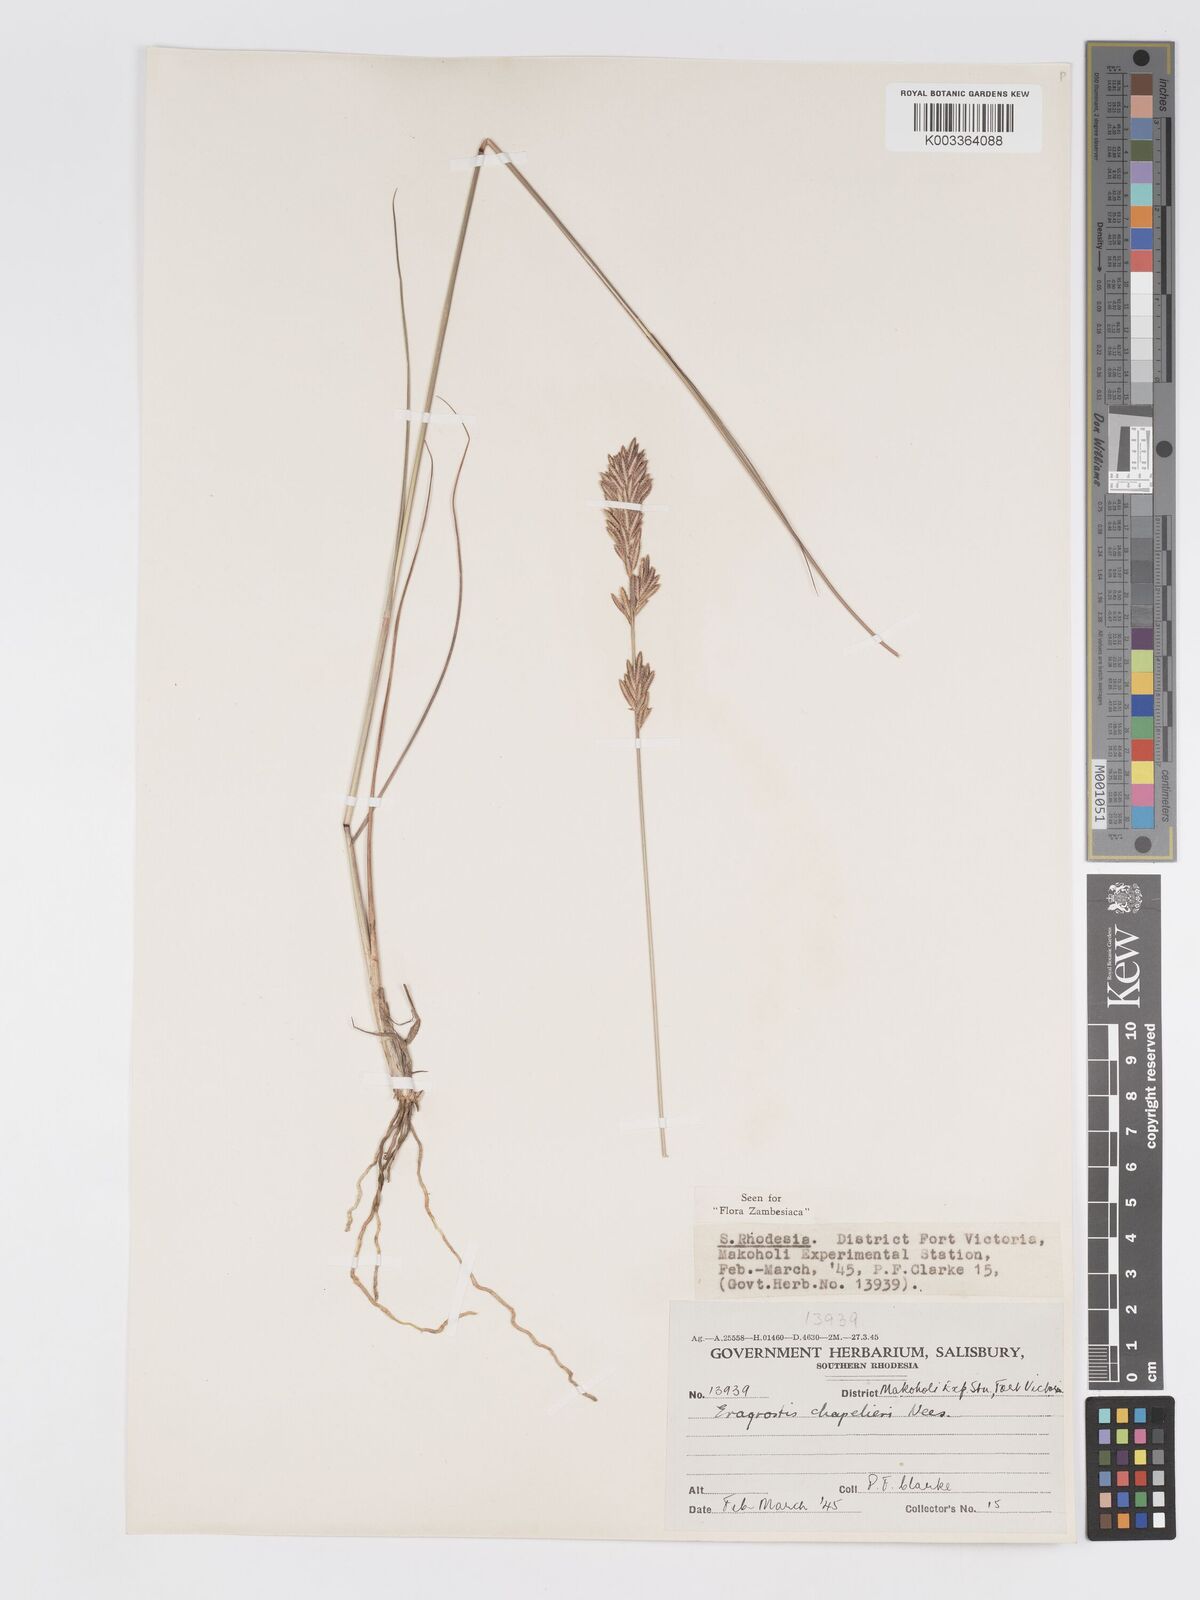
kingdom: Plantae
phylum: Tracheophyta
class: Liliopsida
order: Poales
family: Poaceae
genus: Eragrostis
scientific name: Eragrostis chapelieri
